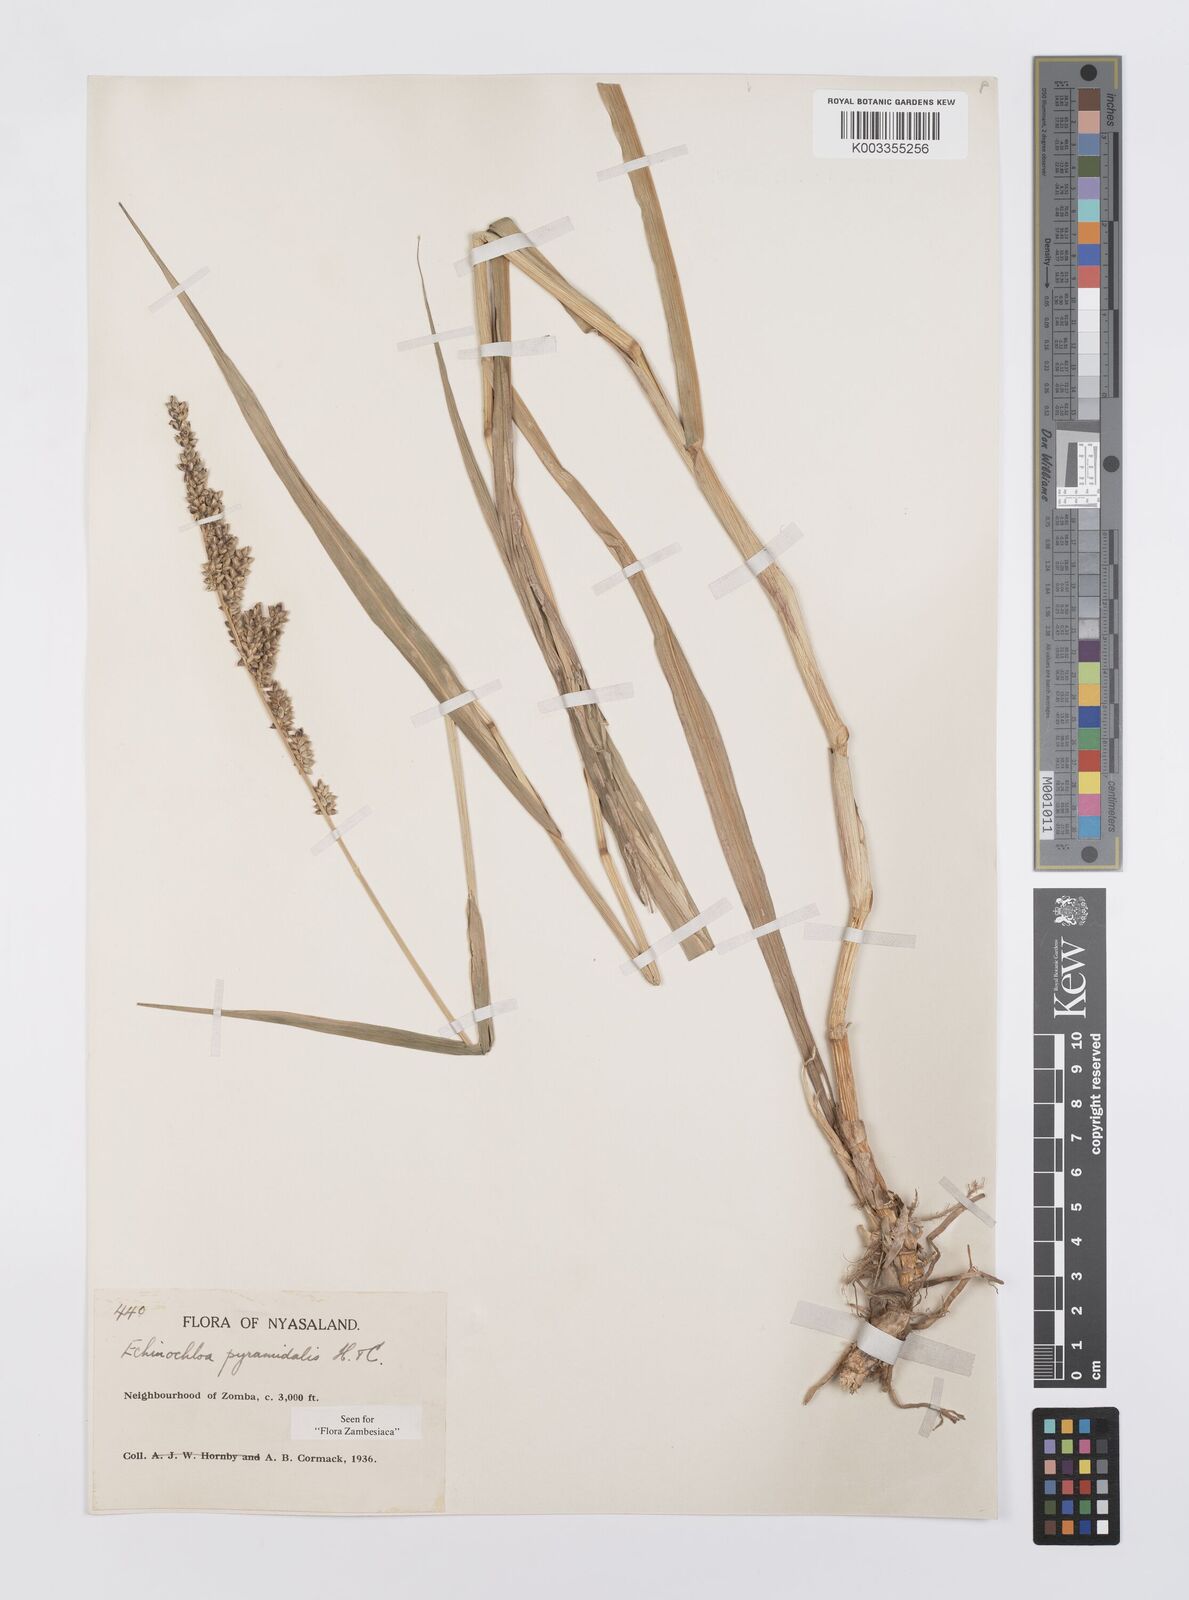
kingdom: Plantae
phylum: Tracheophyta
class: Liliopsida
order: Poales
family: Poaceae
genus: Echinochloa
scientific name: Echinochloa pyramidalis
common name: Antelope grass
